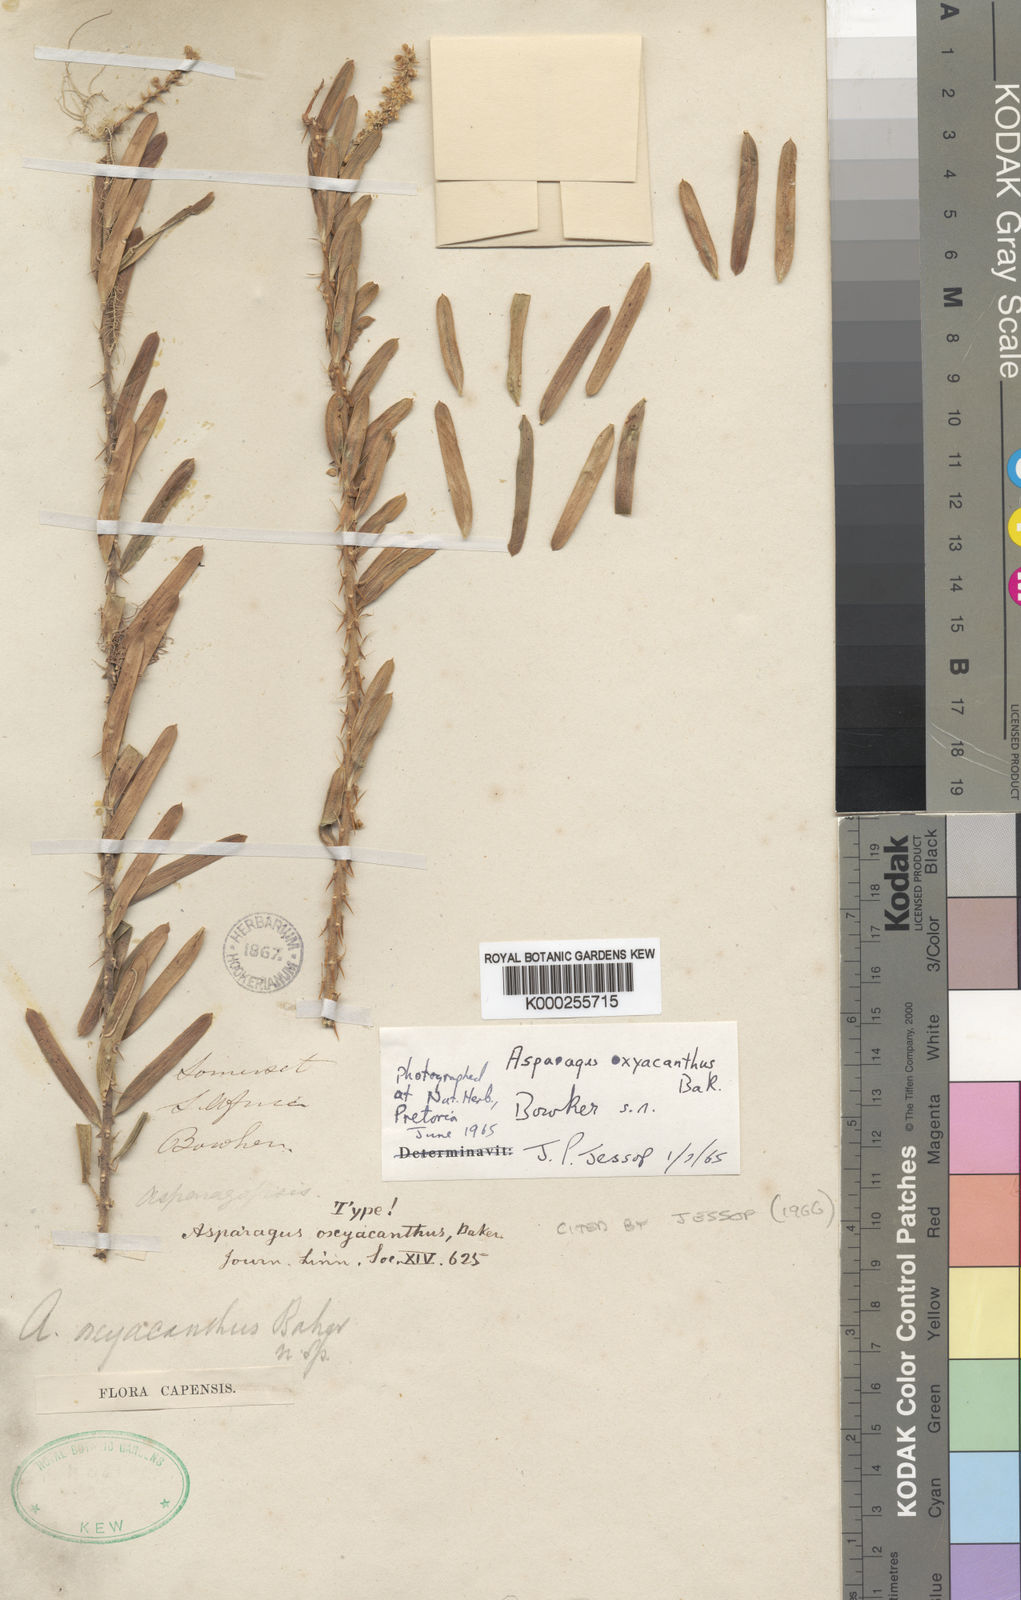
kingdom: Plantae
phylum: Tracheophyta
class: Liliopsida
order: Asparagales
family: Asparagaceae
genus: Asparagus
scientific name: Asparagus oxyacanthus
